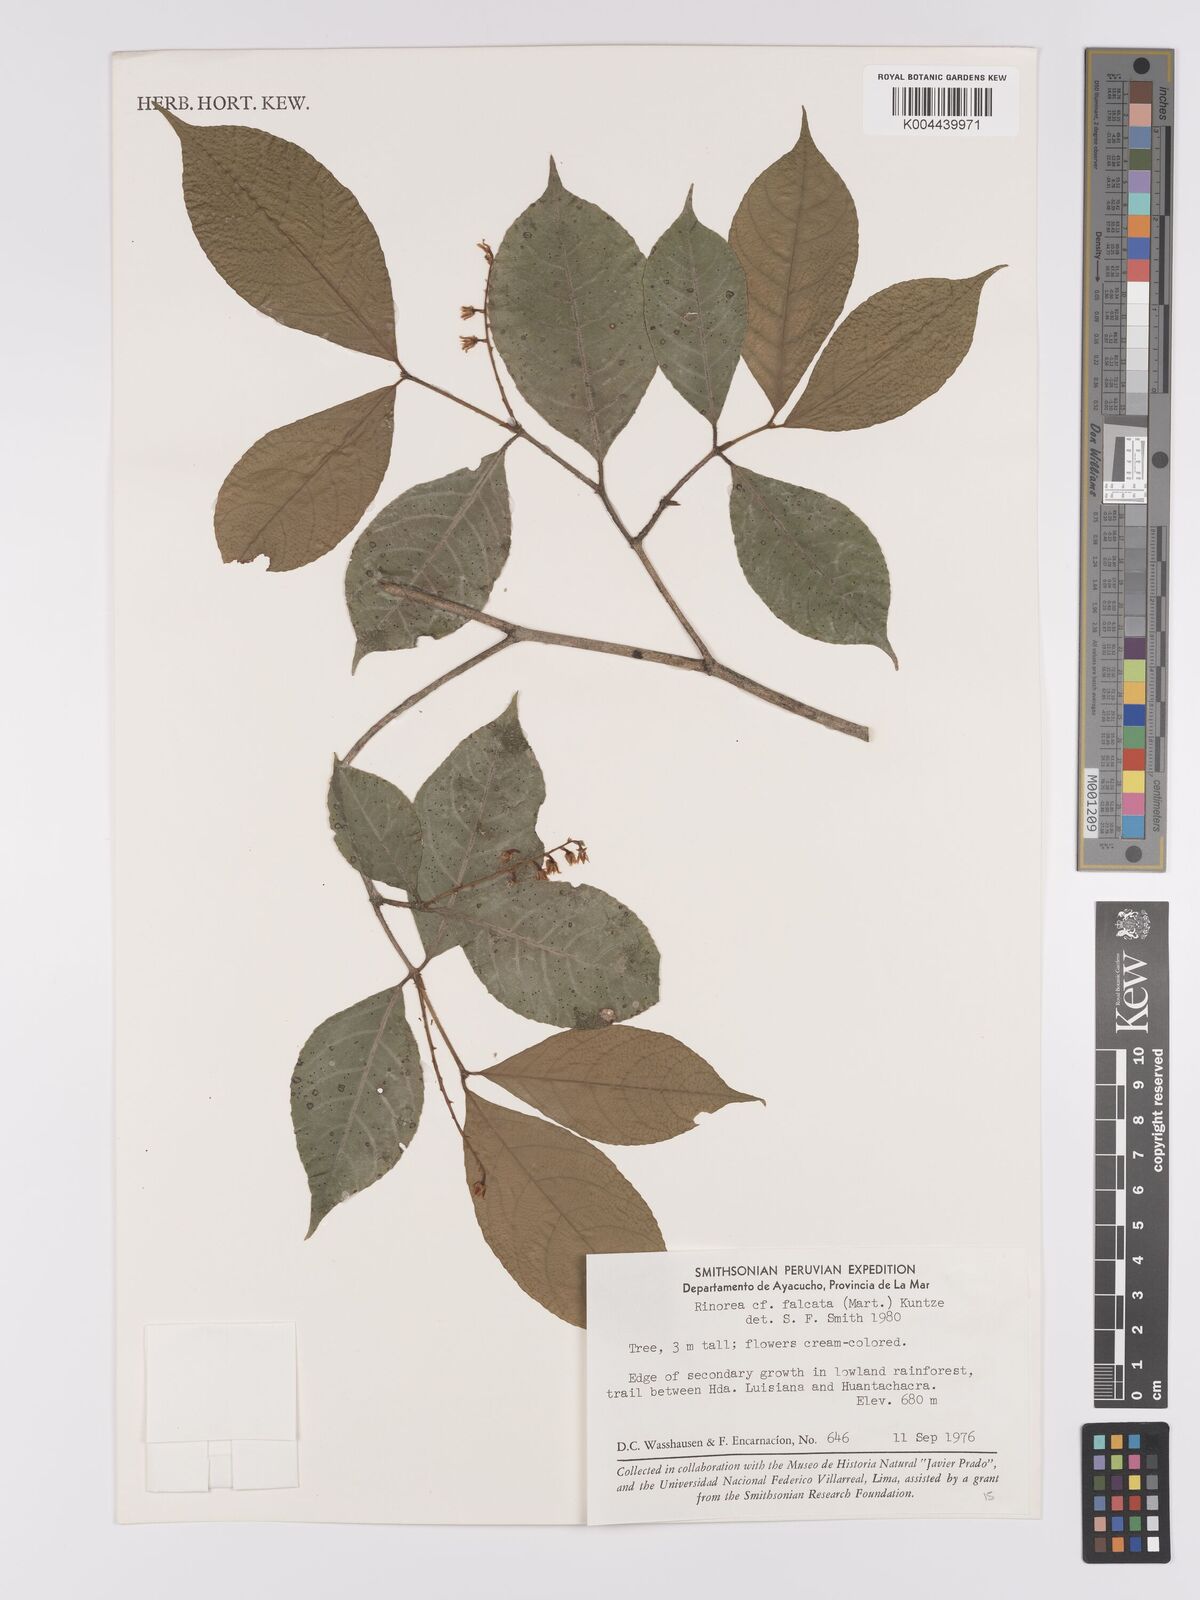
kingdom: Plantae
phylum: Tracheophyta
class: Magnoliopsida
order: Malpighiales
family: Violaceae
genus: Rinorea
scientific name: Rinorea falcata
